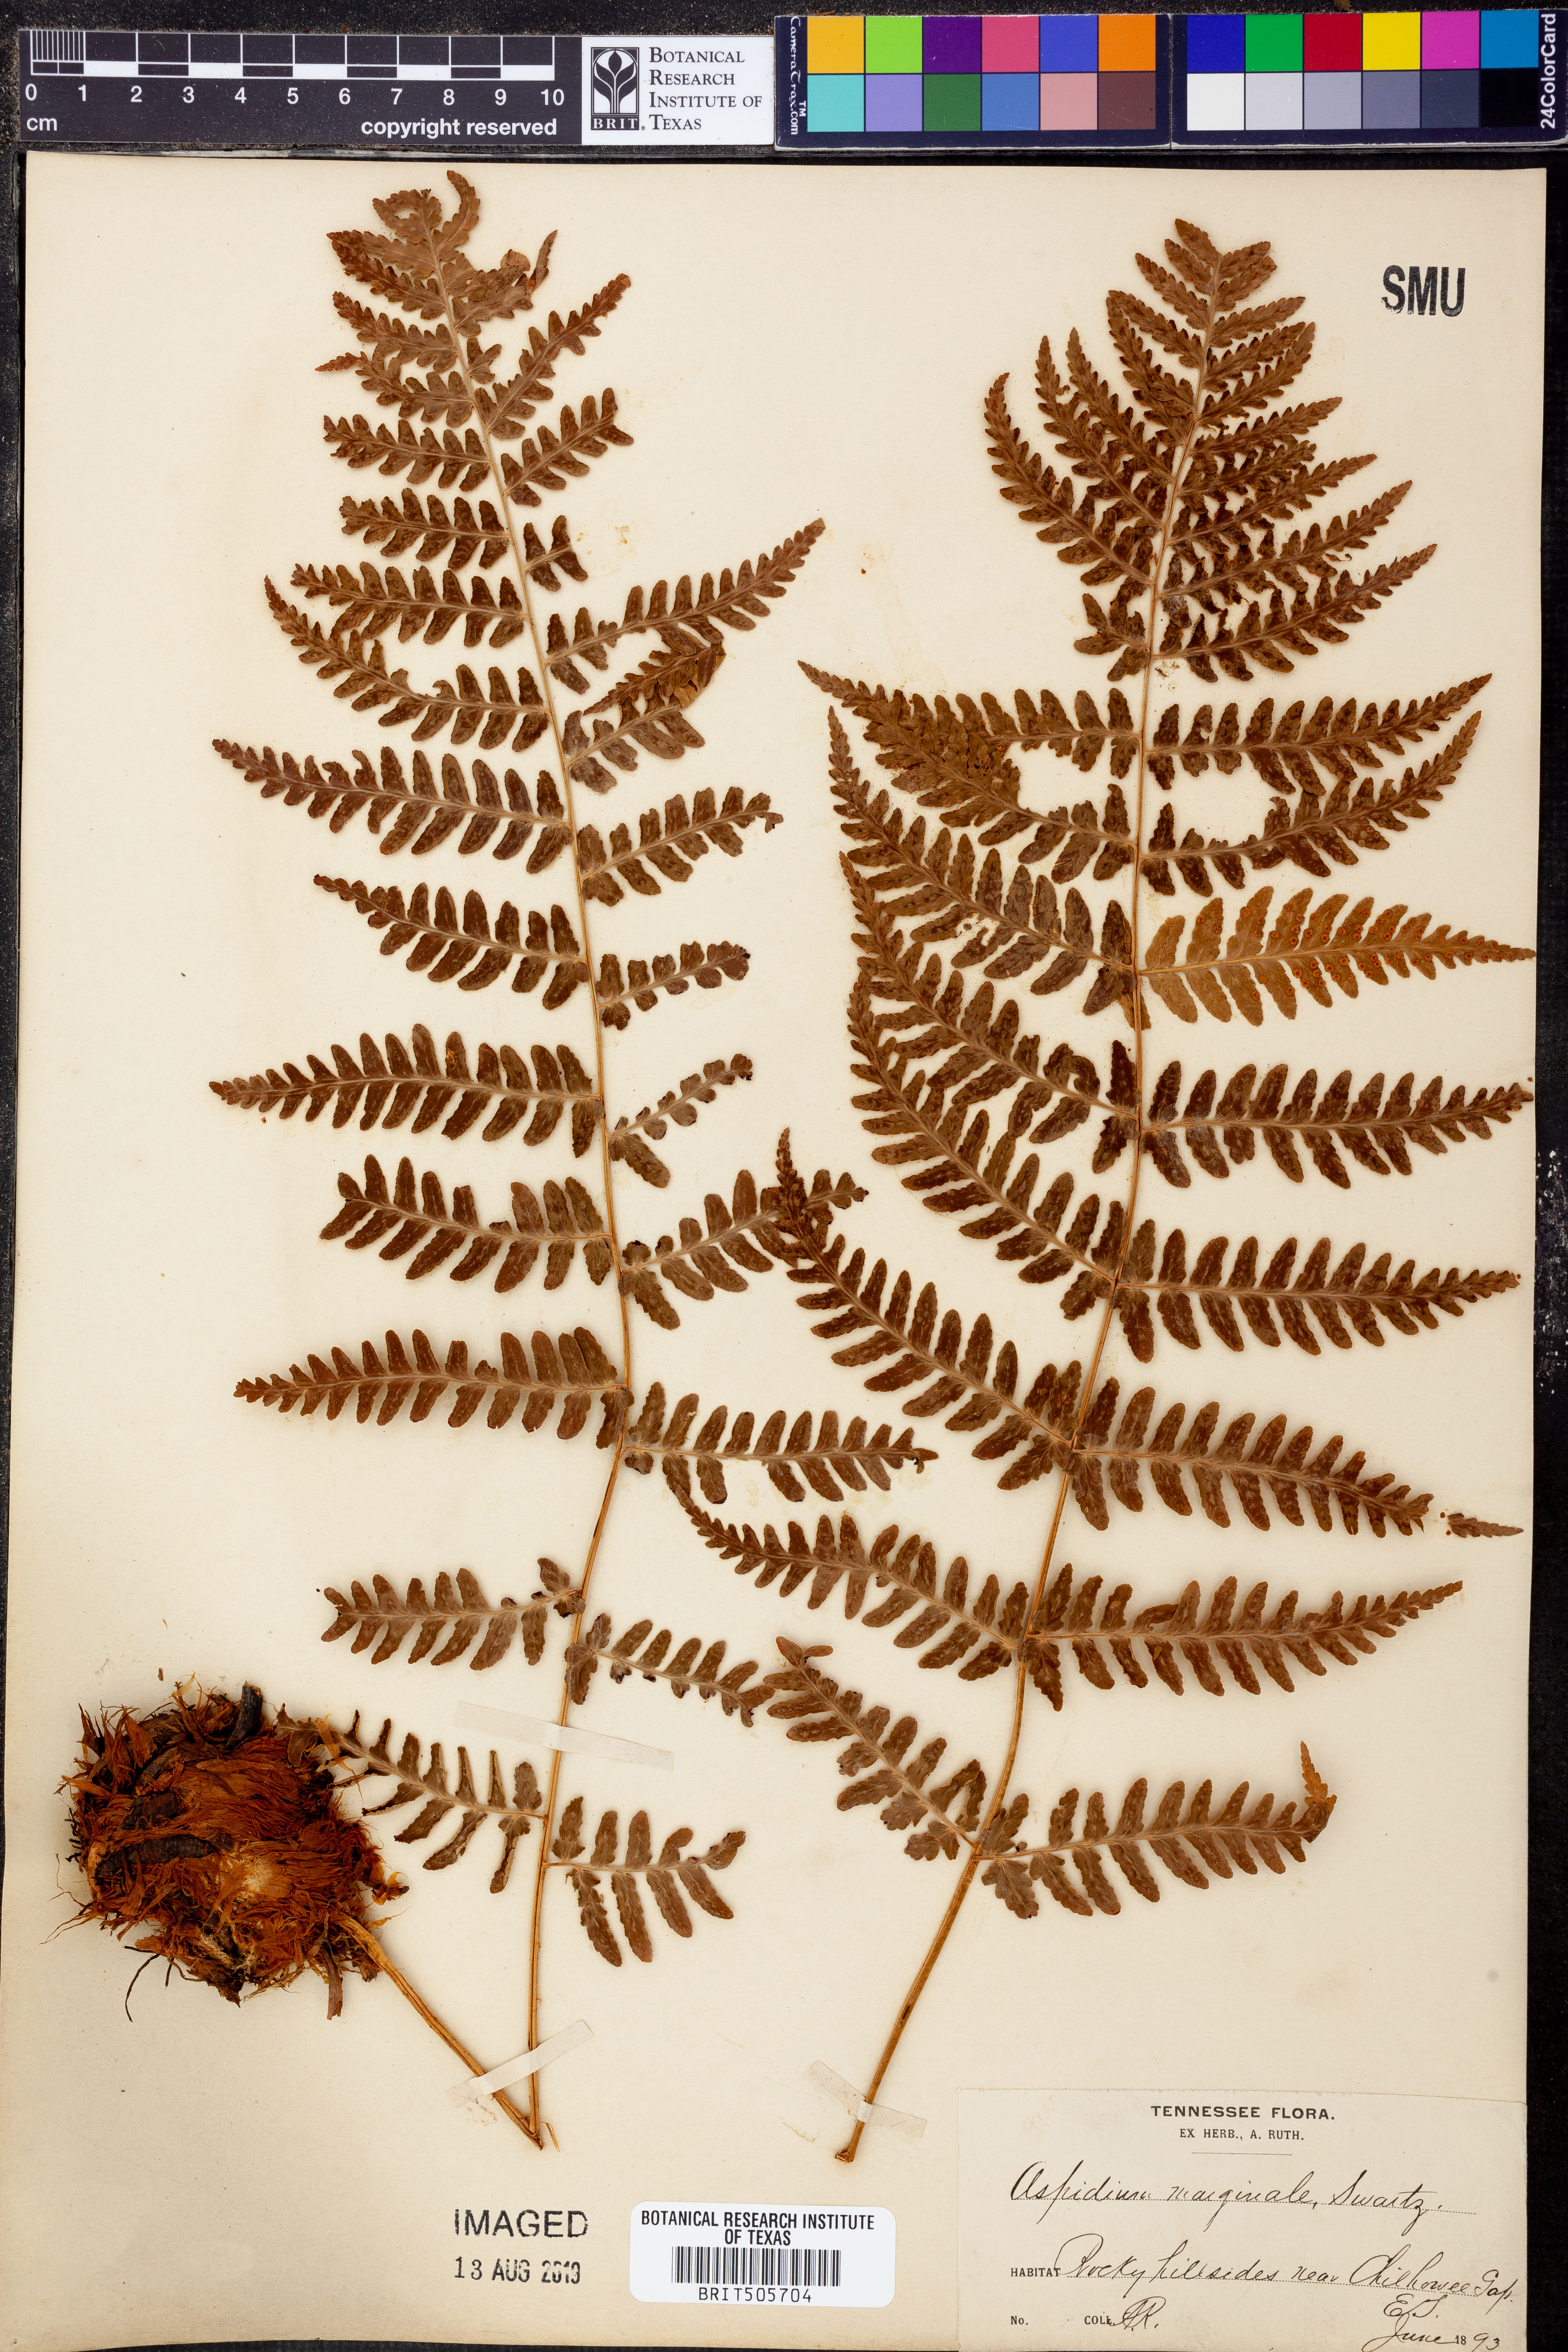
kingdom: Plantae
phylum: Tracheophyta
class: Polypodiopsida
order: Polypodiales
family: Dryopteridaceae
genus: Dryopteris
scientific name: Dryopteris marginalis
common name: Marginal wood fern
